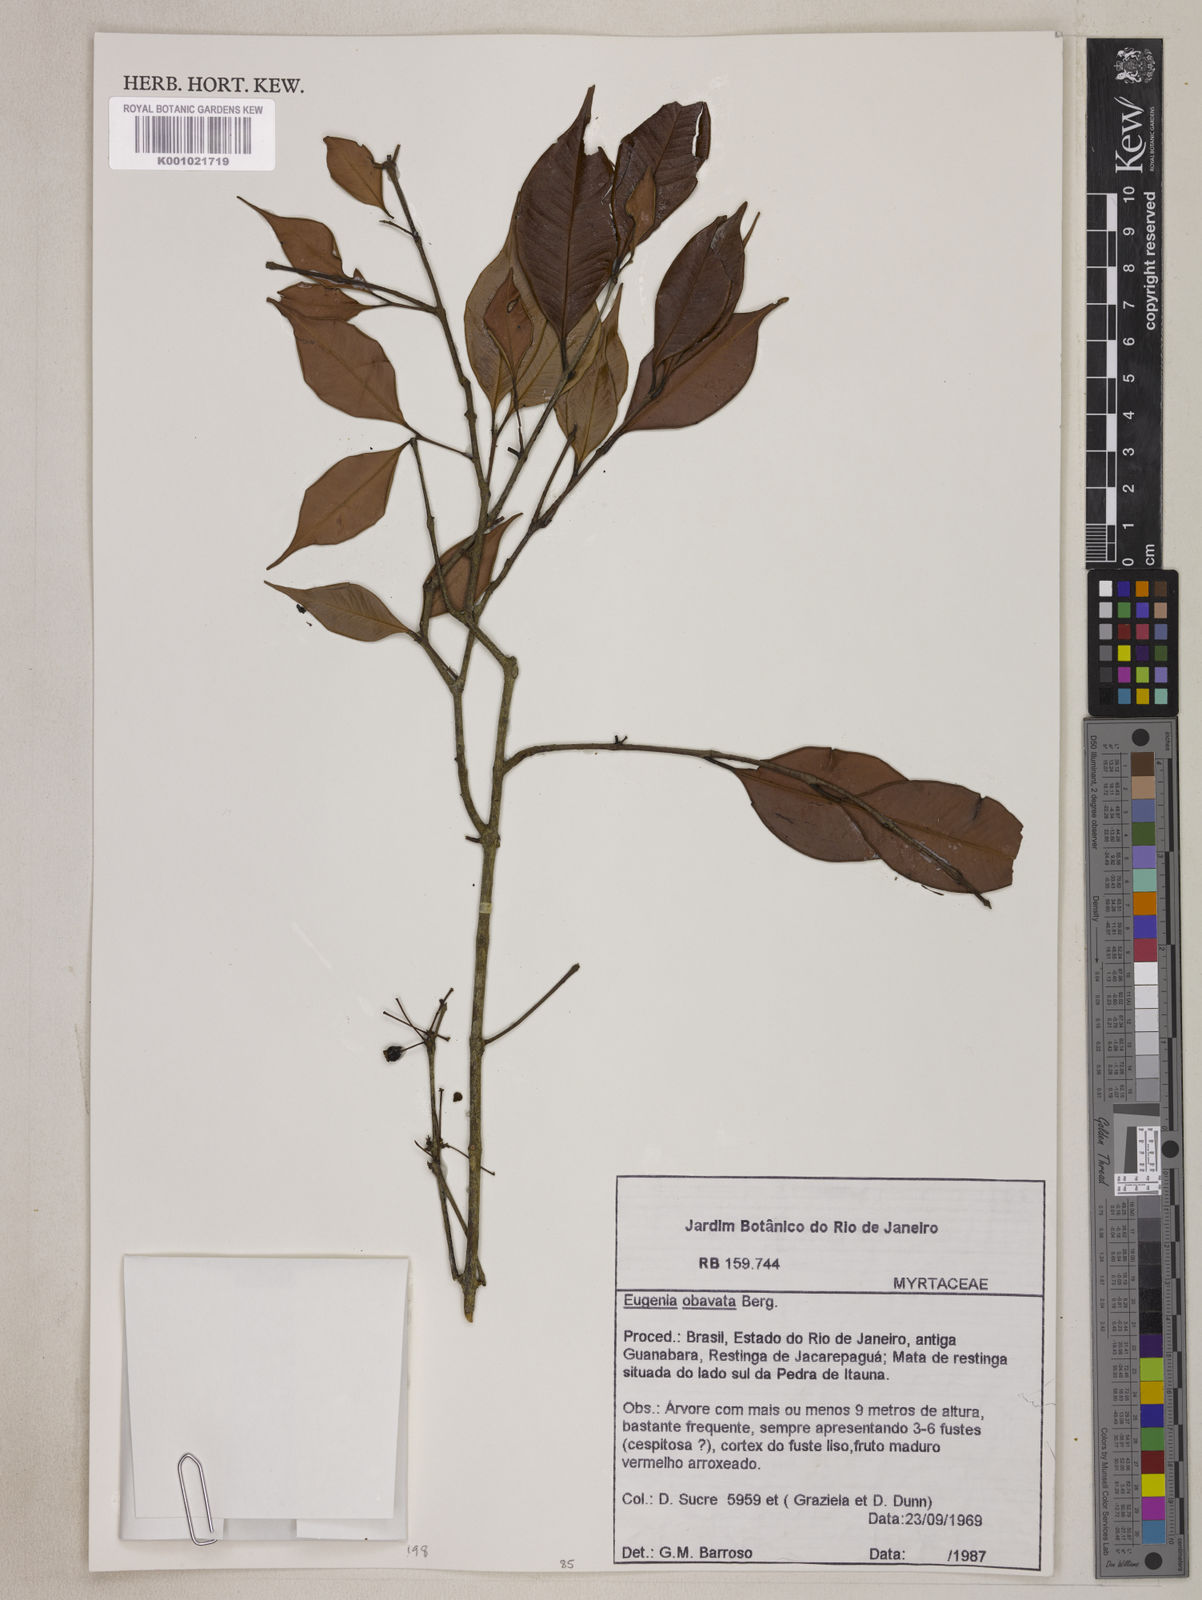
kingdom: Plantae
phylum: Tracheophyta
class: Magnoliopsida
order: Myrtales
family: Myrtaceae
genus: Eugenia
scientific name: Eugenia zuccarinii
